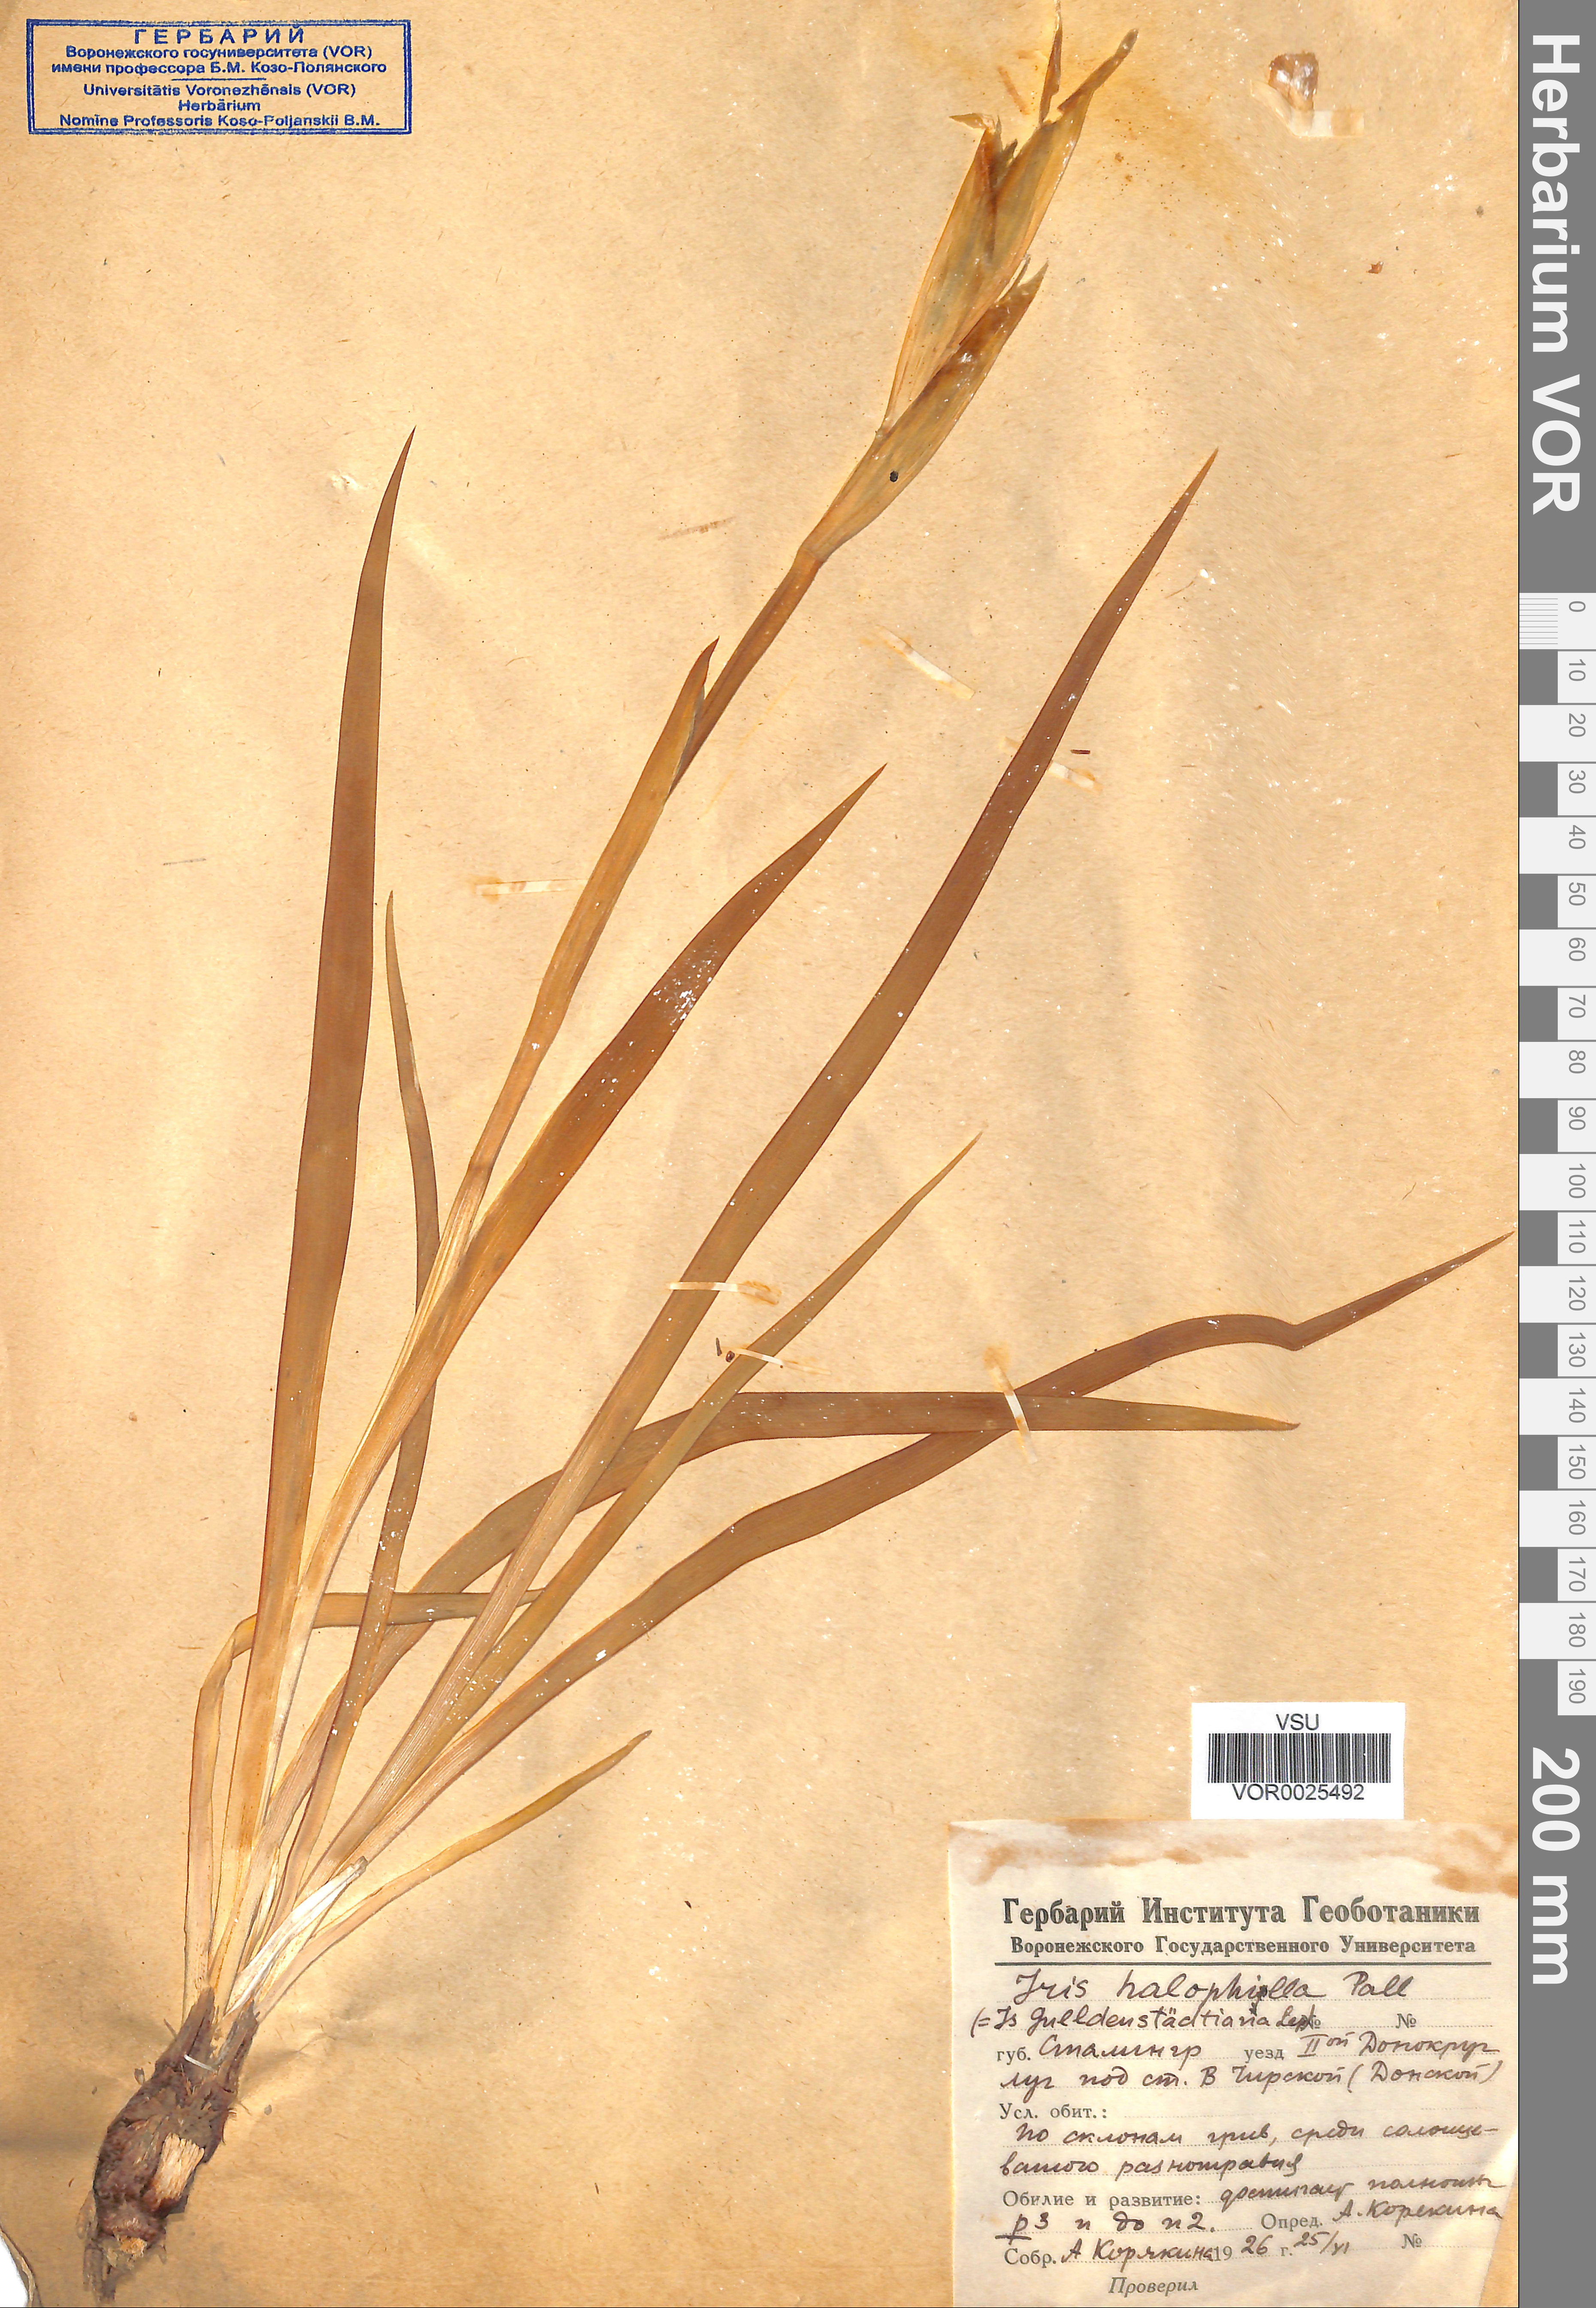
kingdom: Plantae
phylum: Tracheophyta
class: Liliopsida
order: Asparagales
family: Iridaceae
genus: Iris
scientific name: Iris halophila
